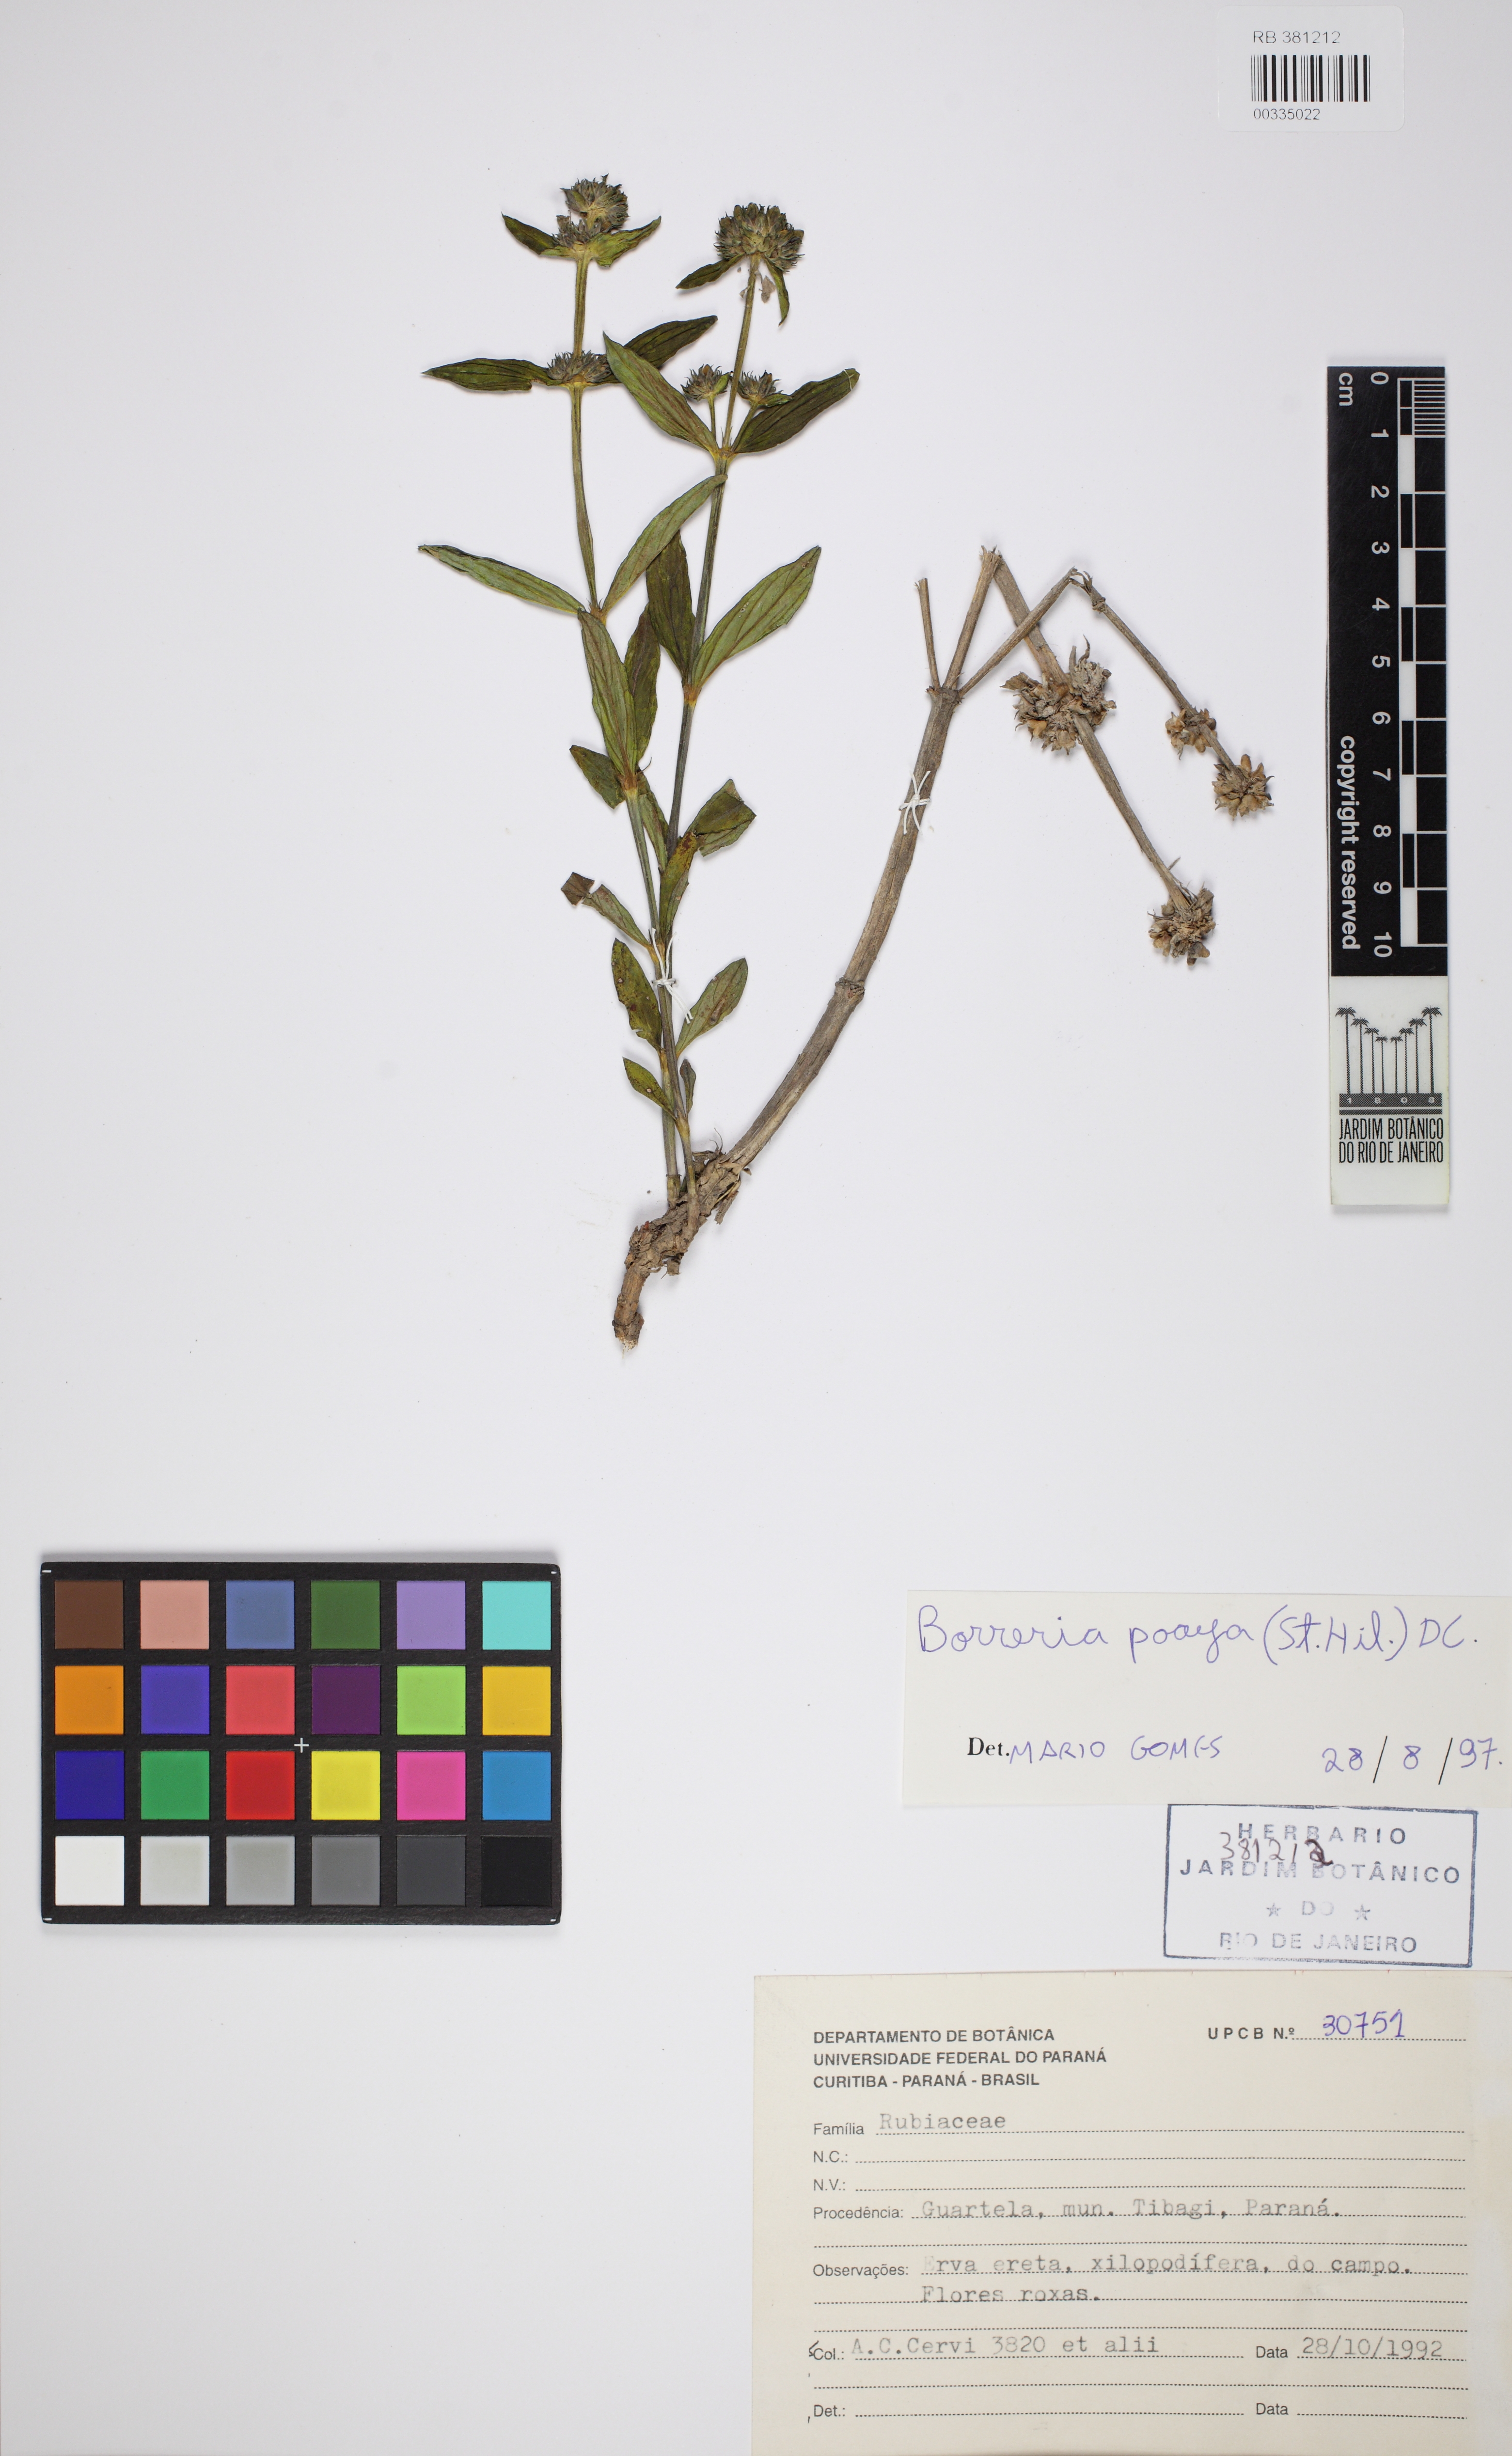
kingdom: Plantae
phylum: Tracheophyta
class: Magnoliopsida
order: Gentianales
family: Rubiaceae
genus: Spermacoce
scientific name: Spermacoce poaya
